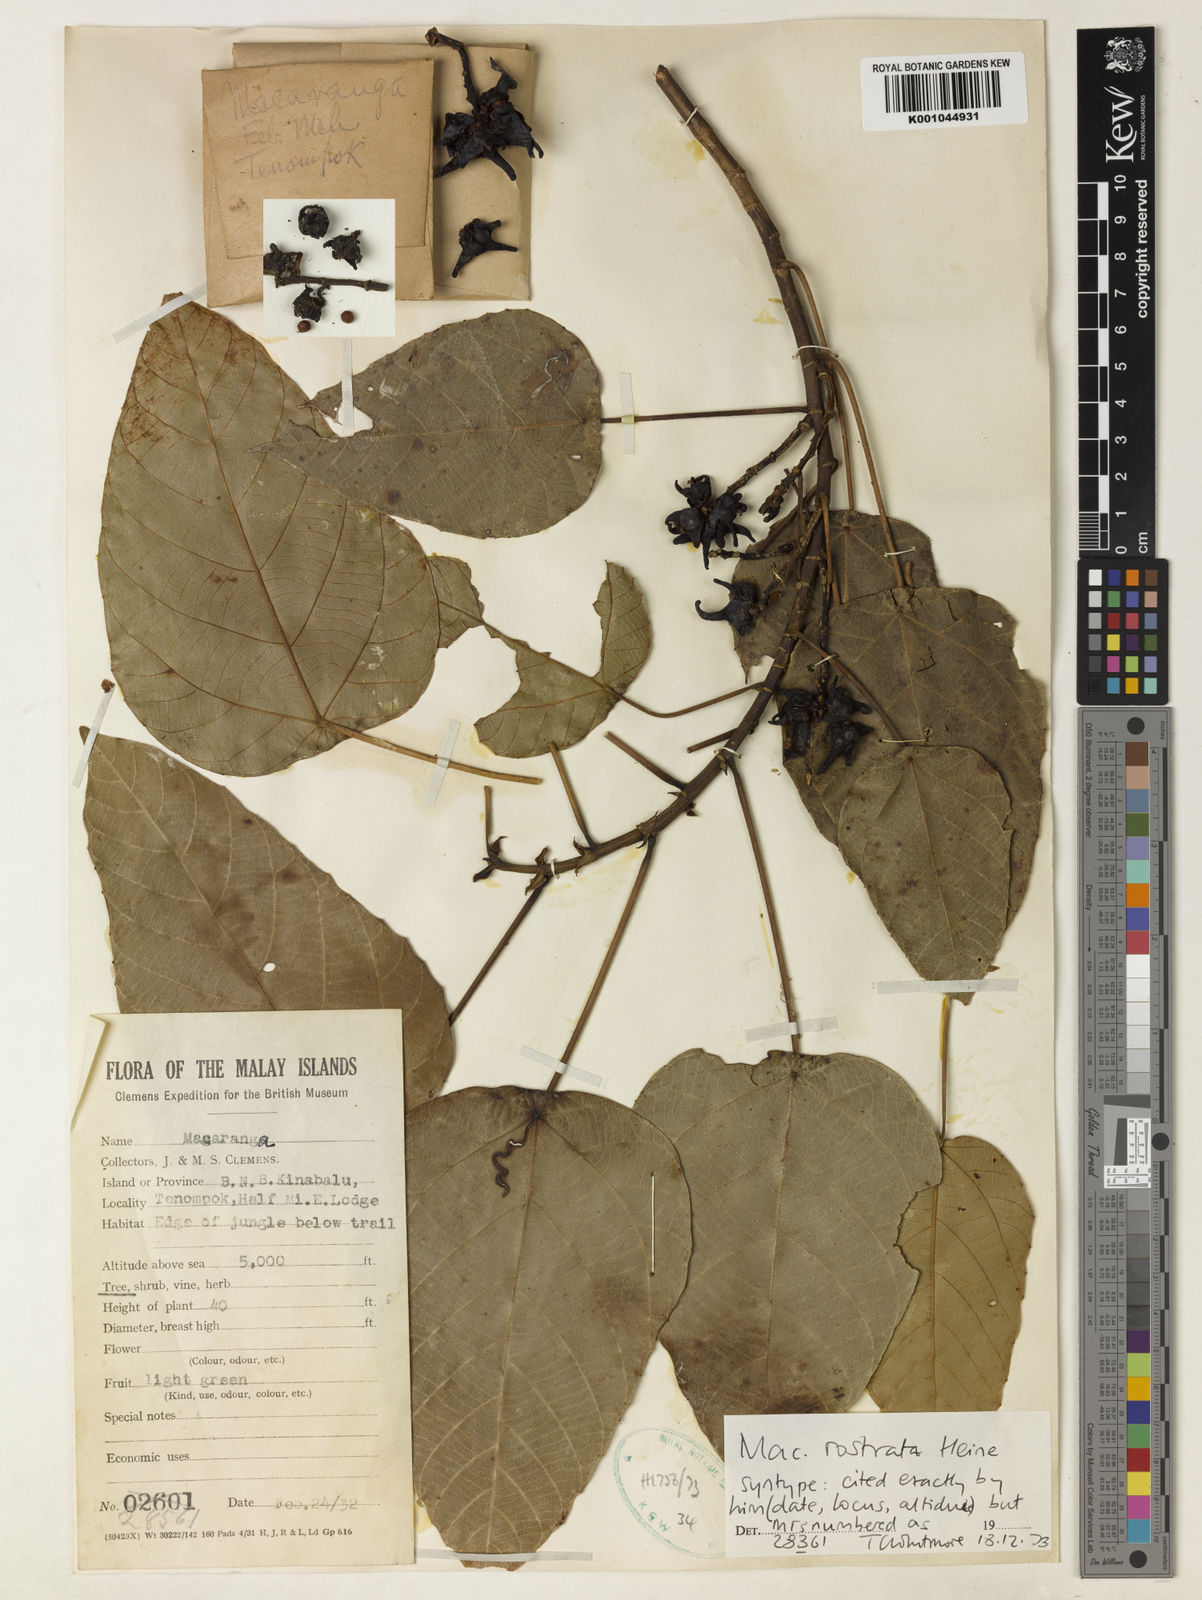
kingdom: Plantae
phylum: Tracheophyta
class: Magnoliopsida
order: Malpighiales
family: Euphorbiaceae
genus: Macaranga
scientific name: Macaranga rostrata
